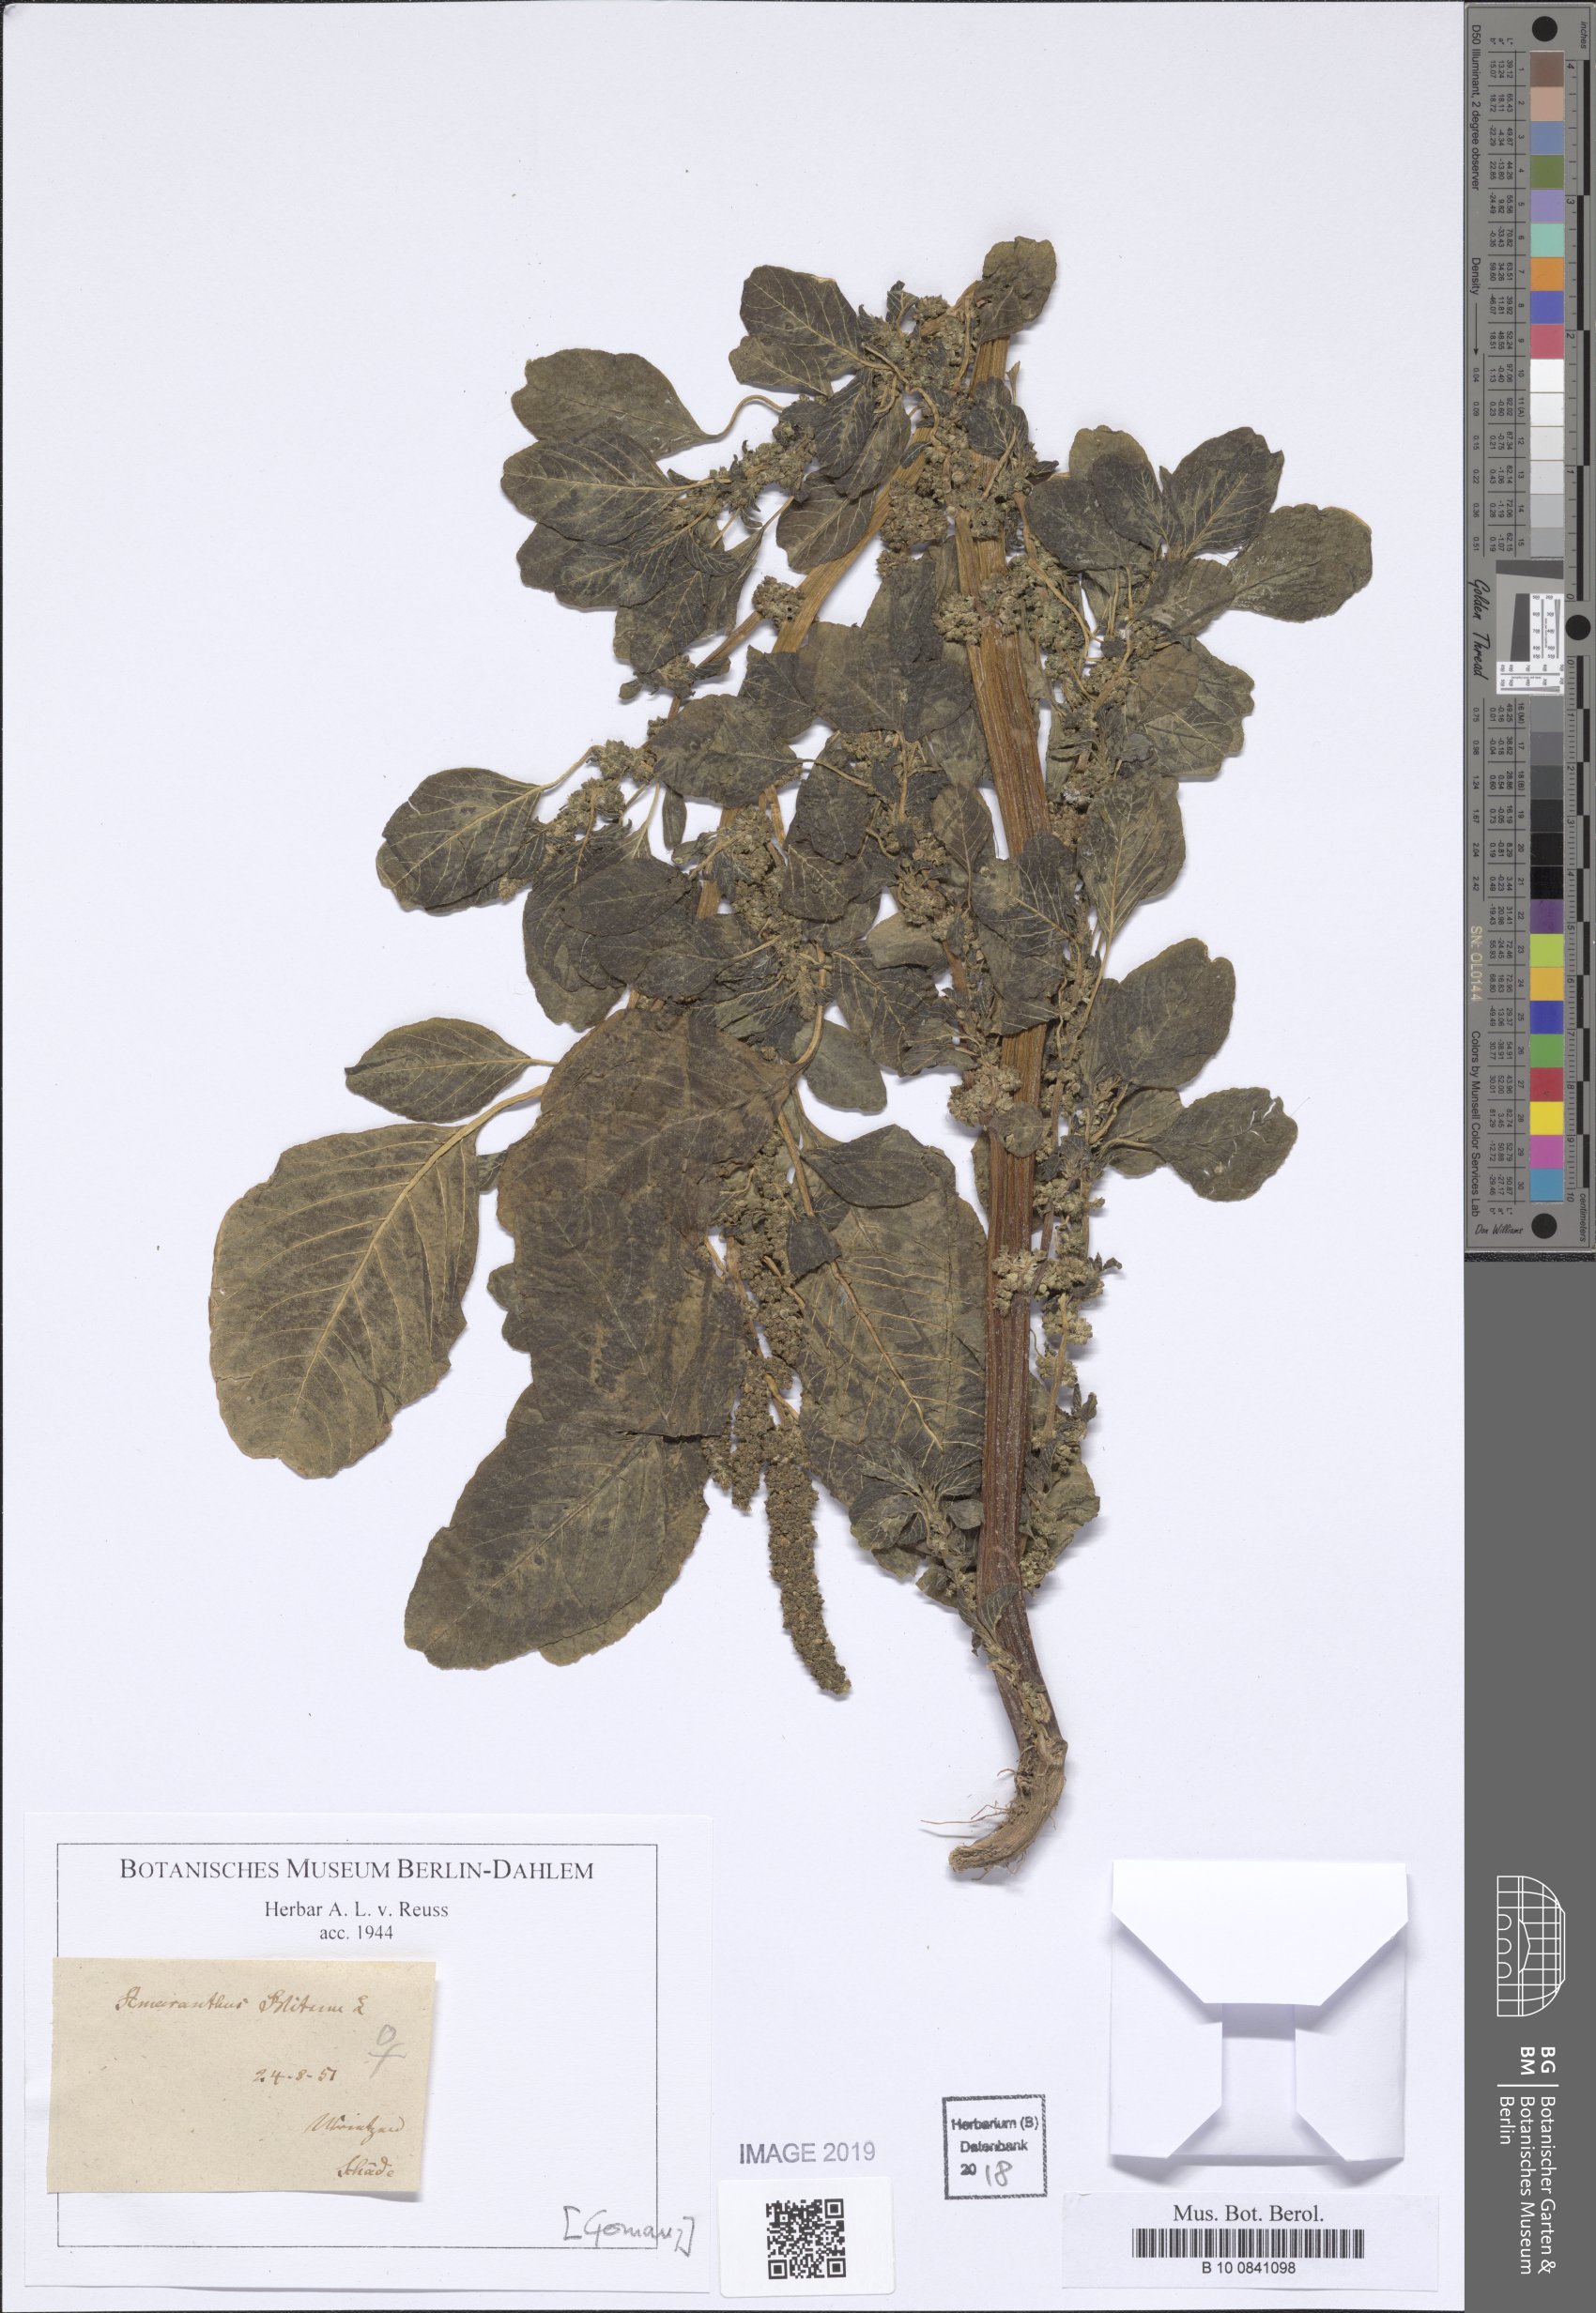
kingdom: Plantae
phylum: Tracheophyta
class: Magnoliopsida
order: Caryophyllales
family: Amaranthaceae
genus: Amaranthus
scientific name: Amaranthus blitum
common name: Purple amaranth
